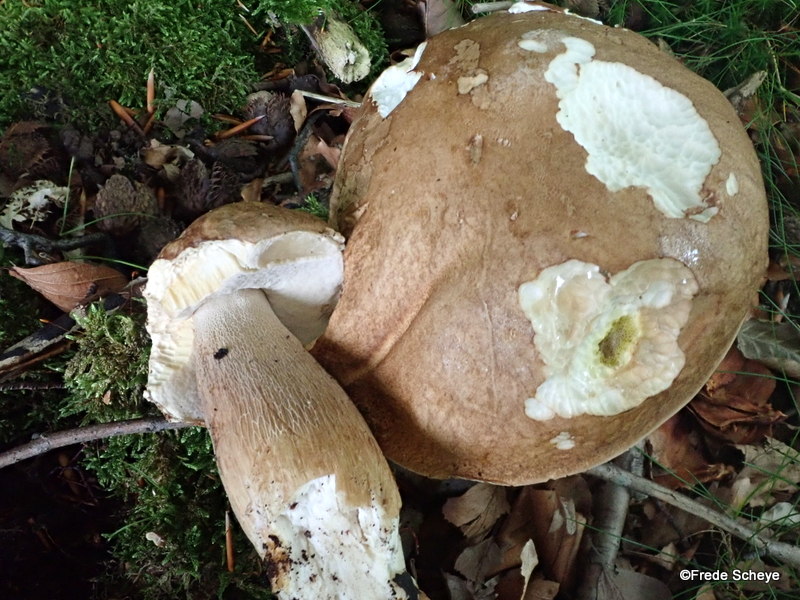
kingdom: Fungi
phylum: Basidiomycota
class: Agaricomycetes
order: Boletales
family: Boletaceae
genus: Boletus
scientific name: Boletus edulis
